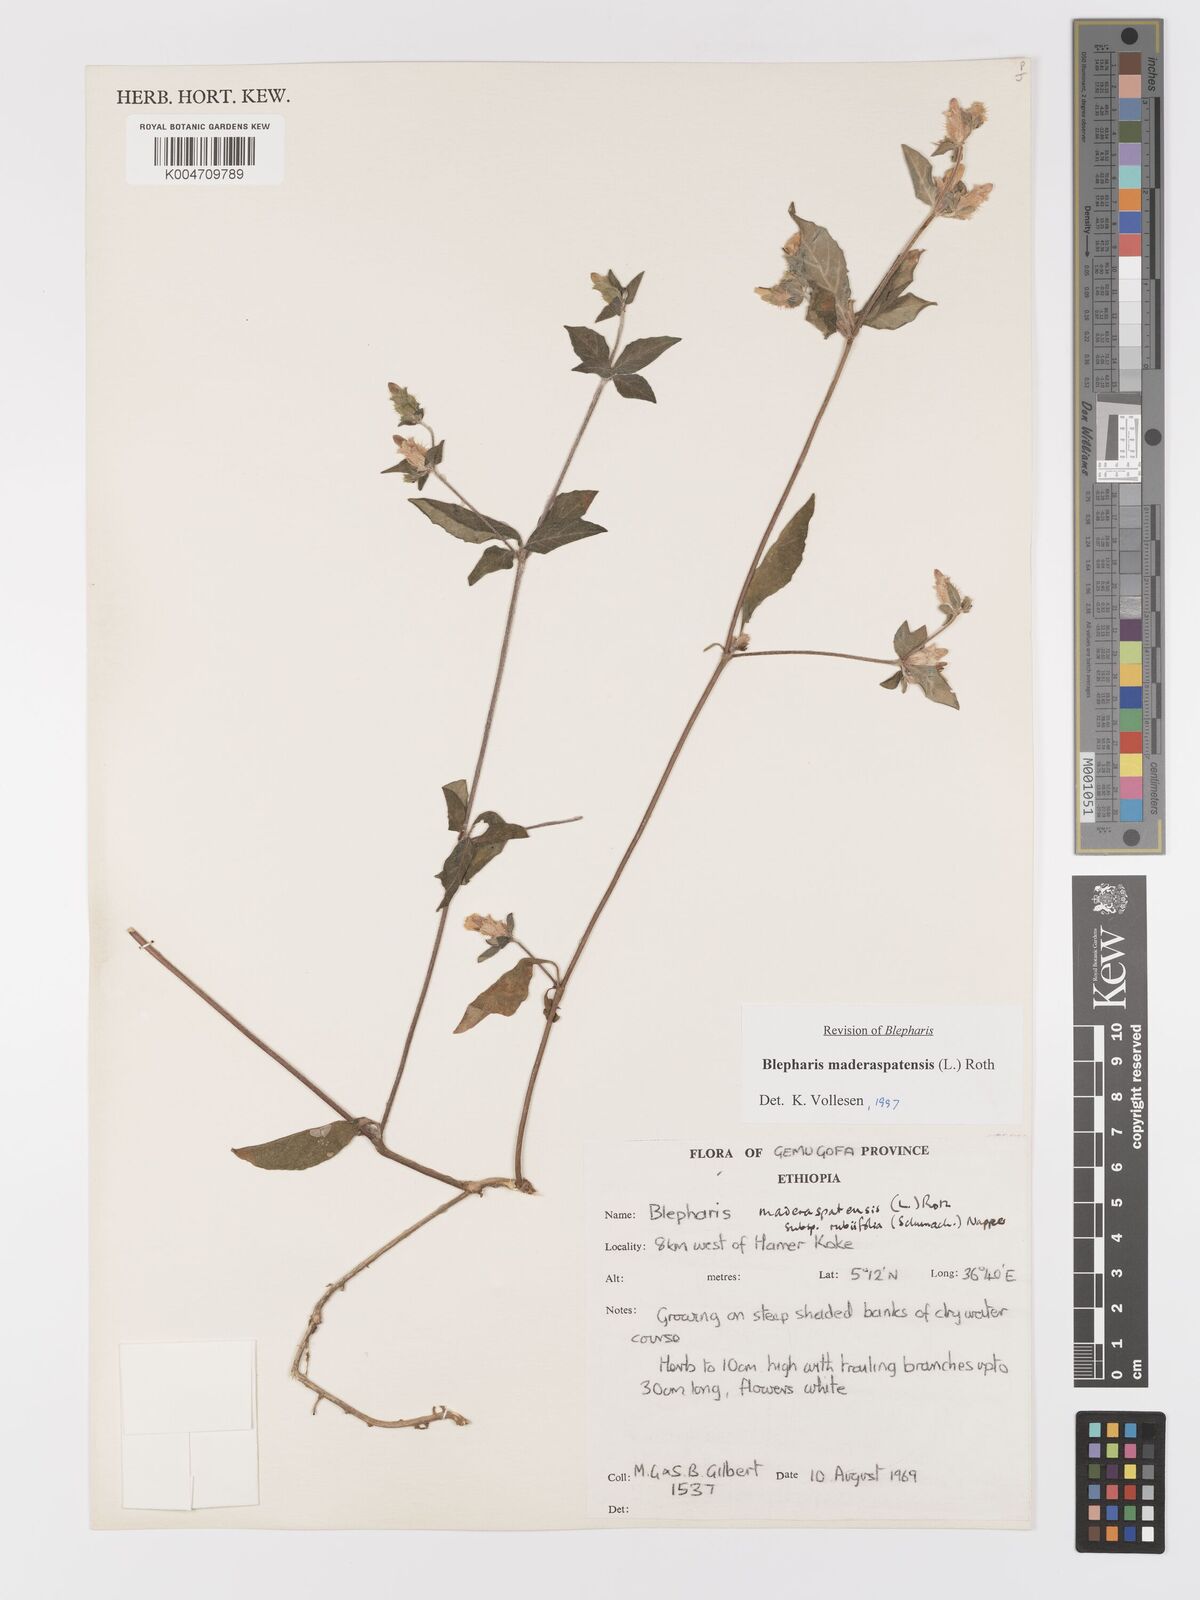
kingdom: Plantae
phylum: Tracheophyta
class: Magnoliopsida
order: Lamiales
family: Acanthaceae
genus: Blepharis
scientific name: Blepharis maderaspatensis
